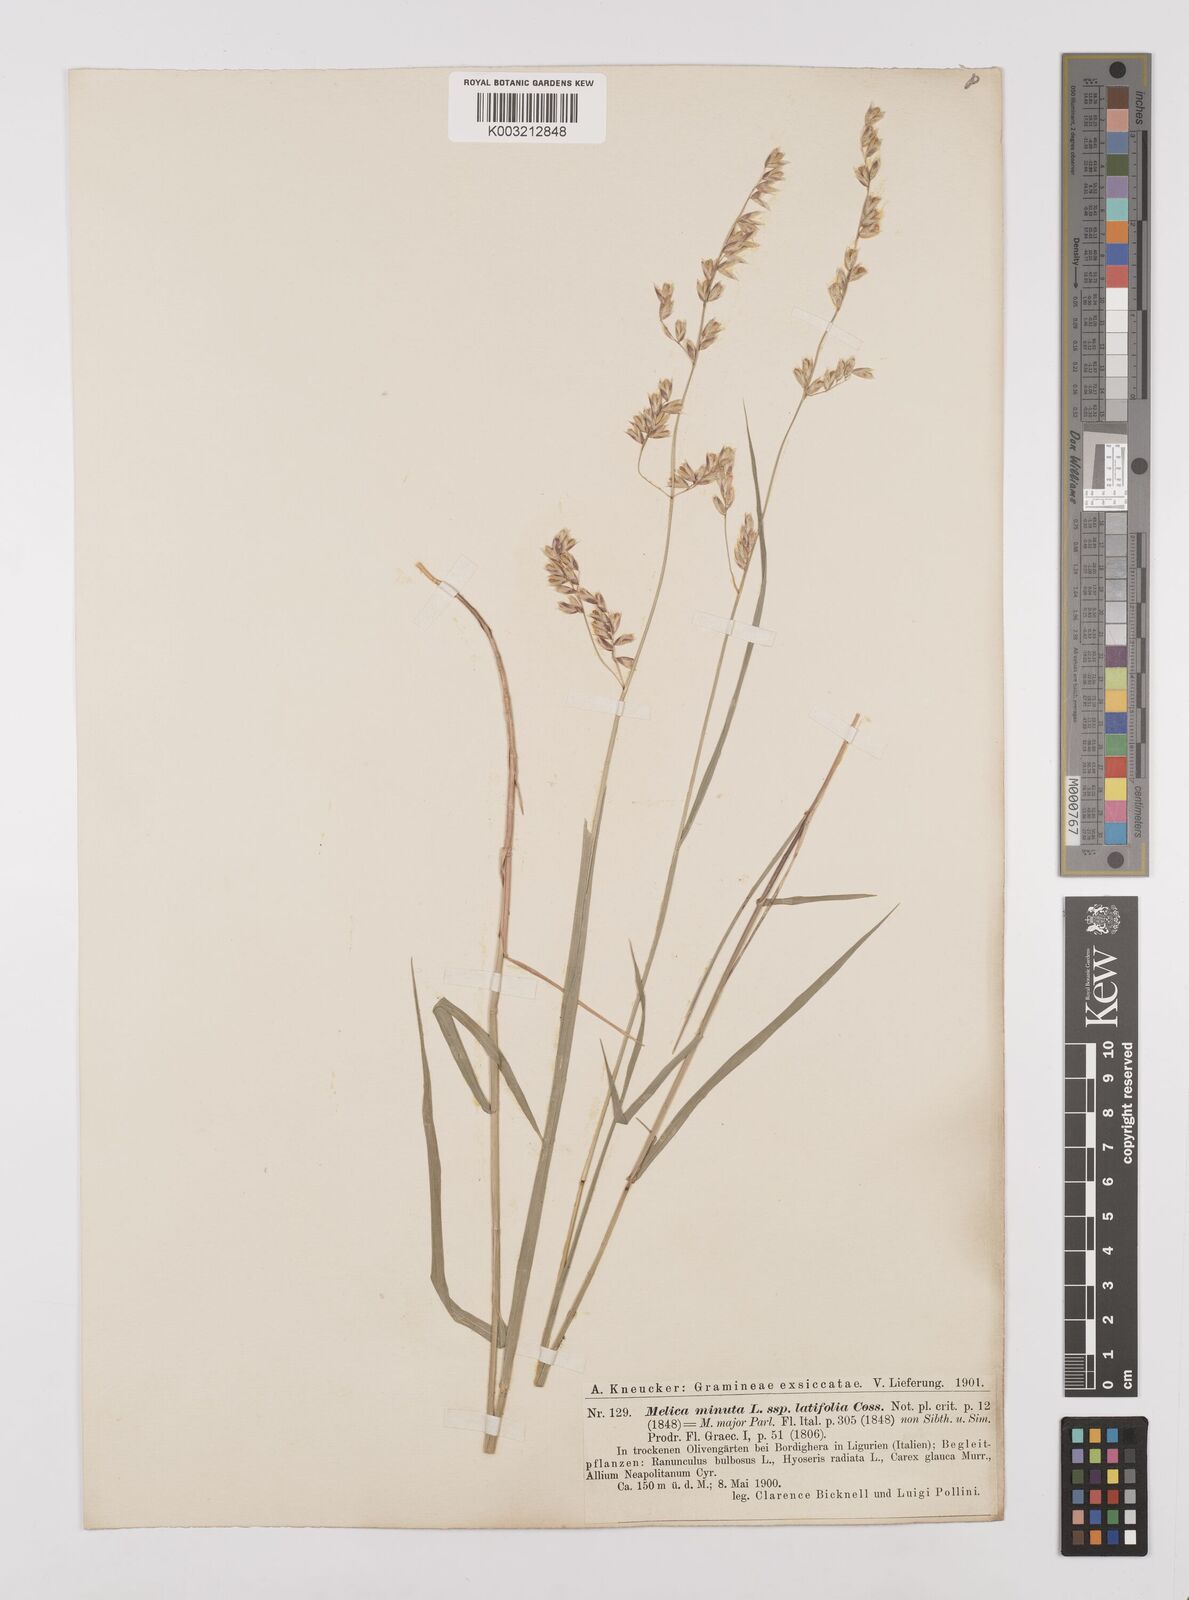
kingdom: Plantae
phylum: Tracheophyta
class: Liliopsida
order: Poales
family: Poaceae
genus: Melica
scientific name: Melica minuta
